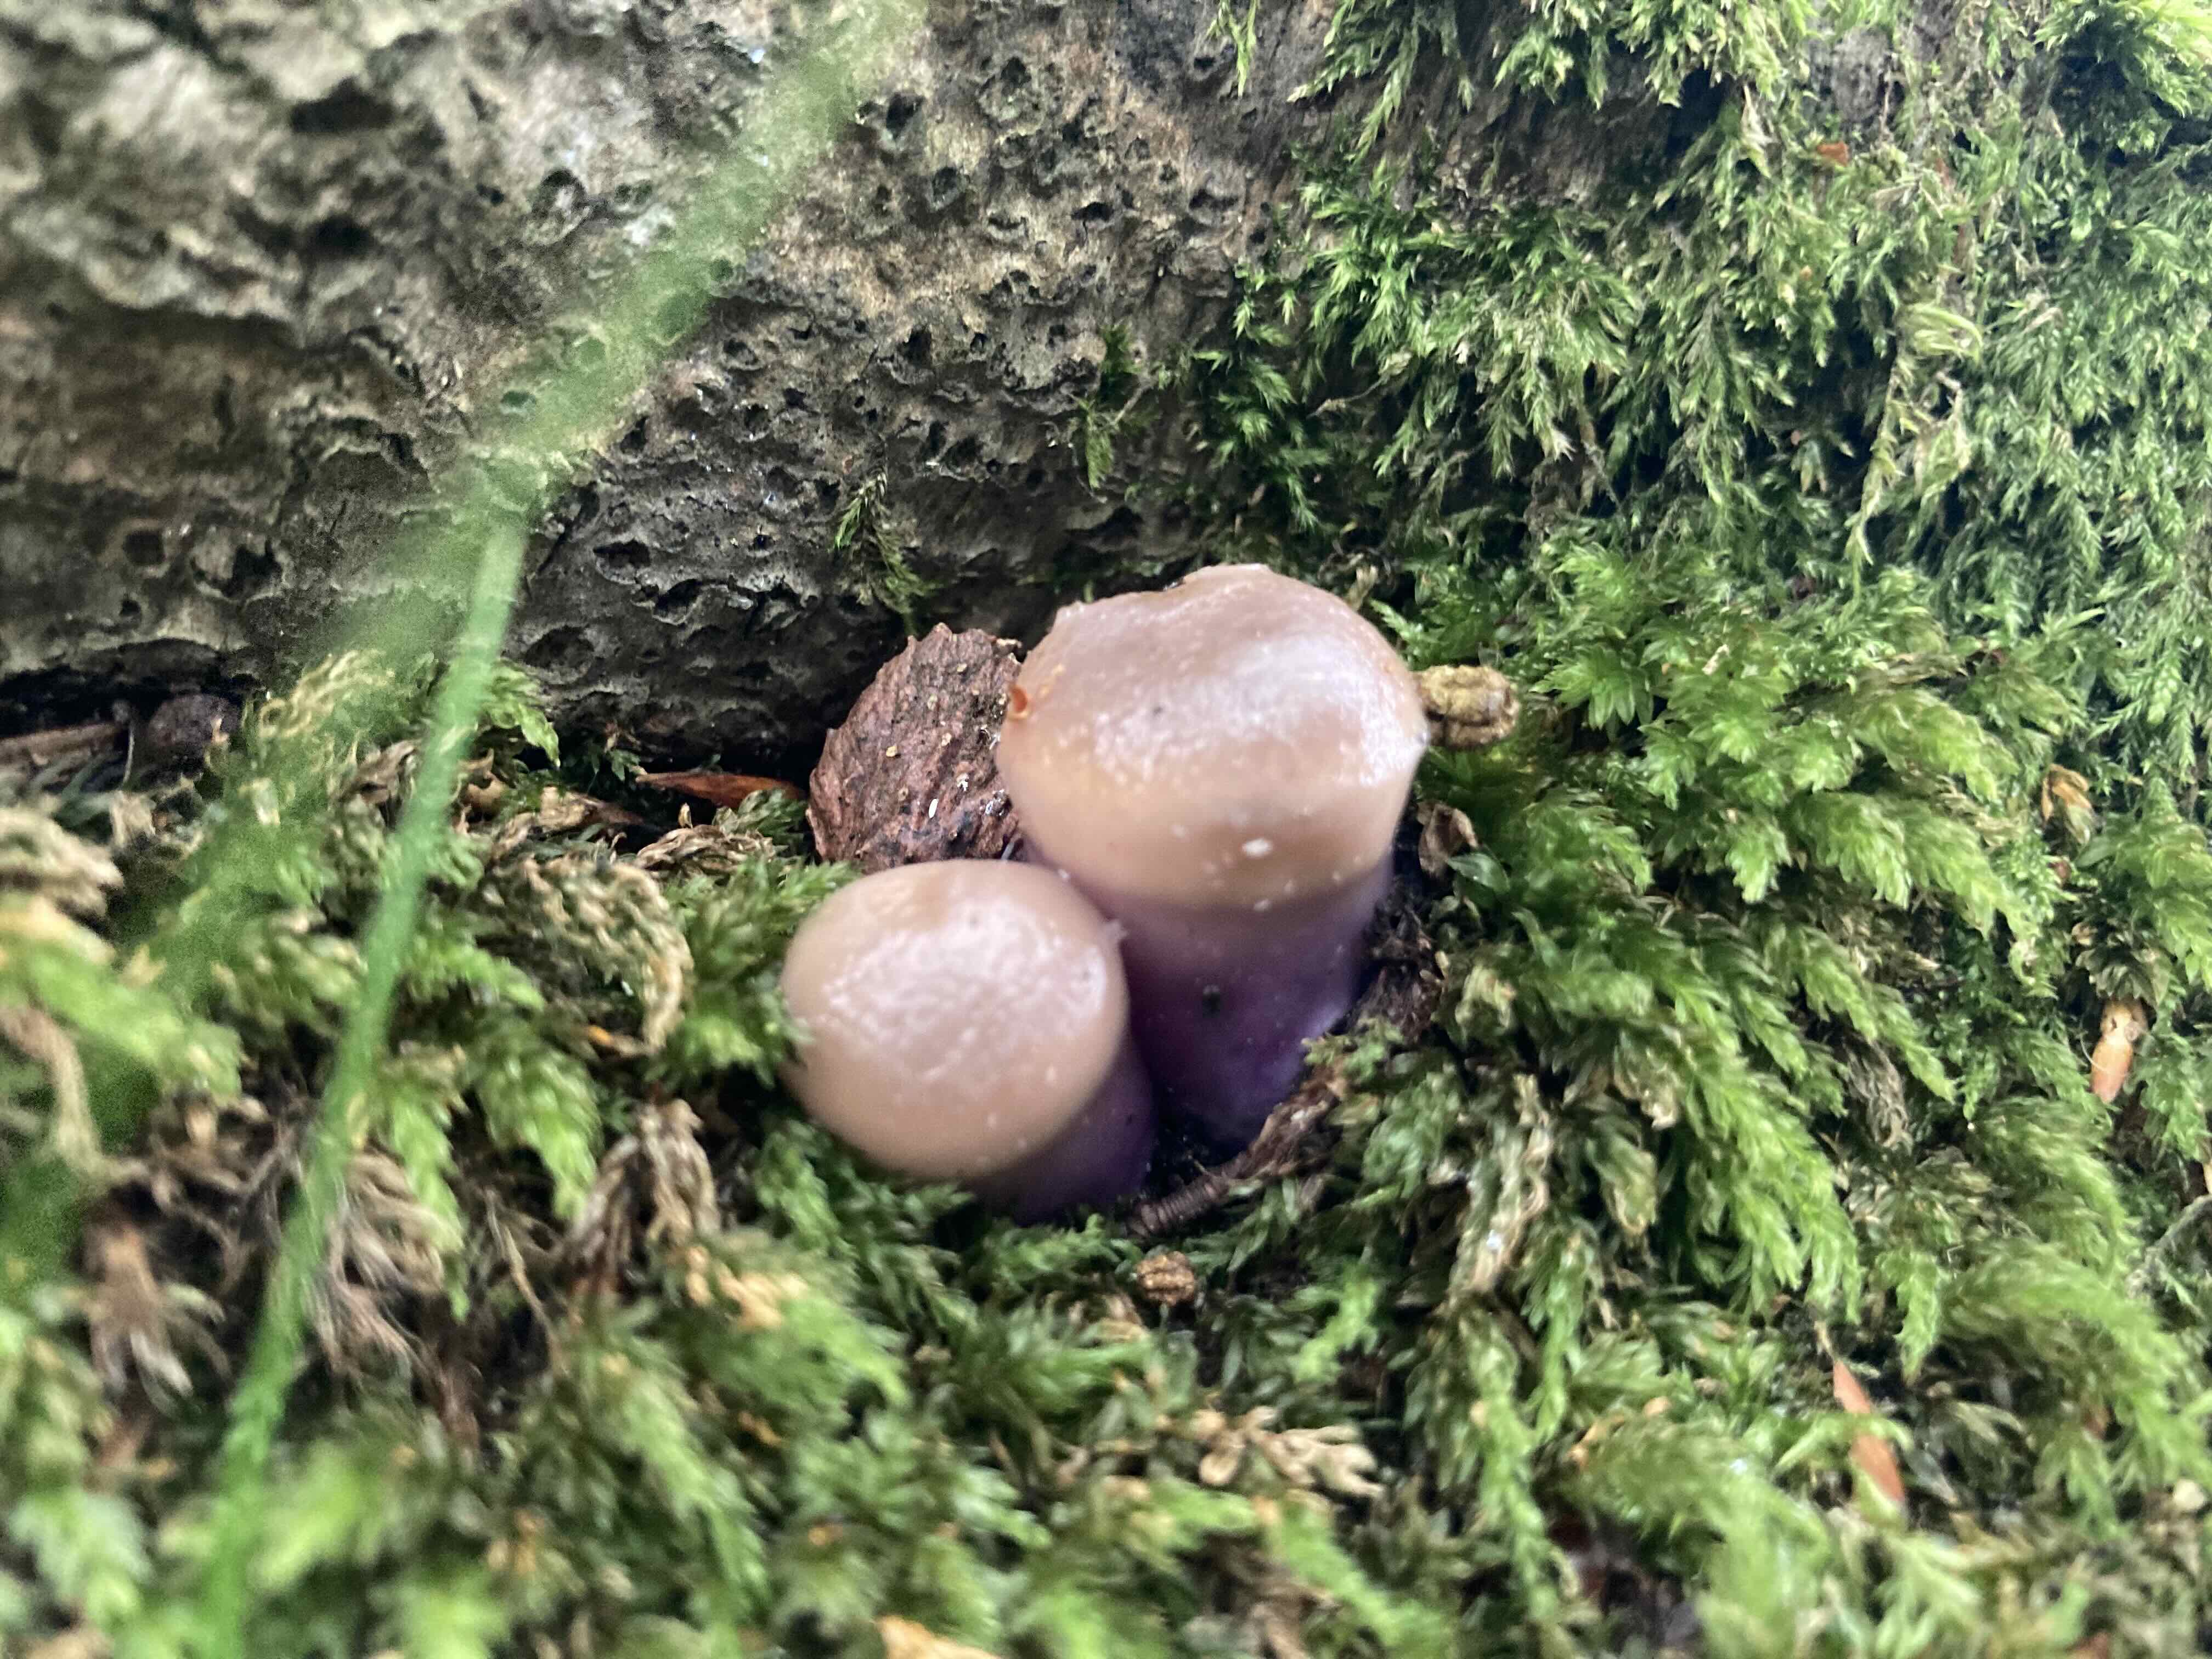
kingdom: Fungi
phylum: Basidiomycota
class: Agaricomycetes
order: Agaricales
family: Cortinariaceae
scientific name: Cortinariaceae
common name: slørhatfamilien
